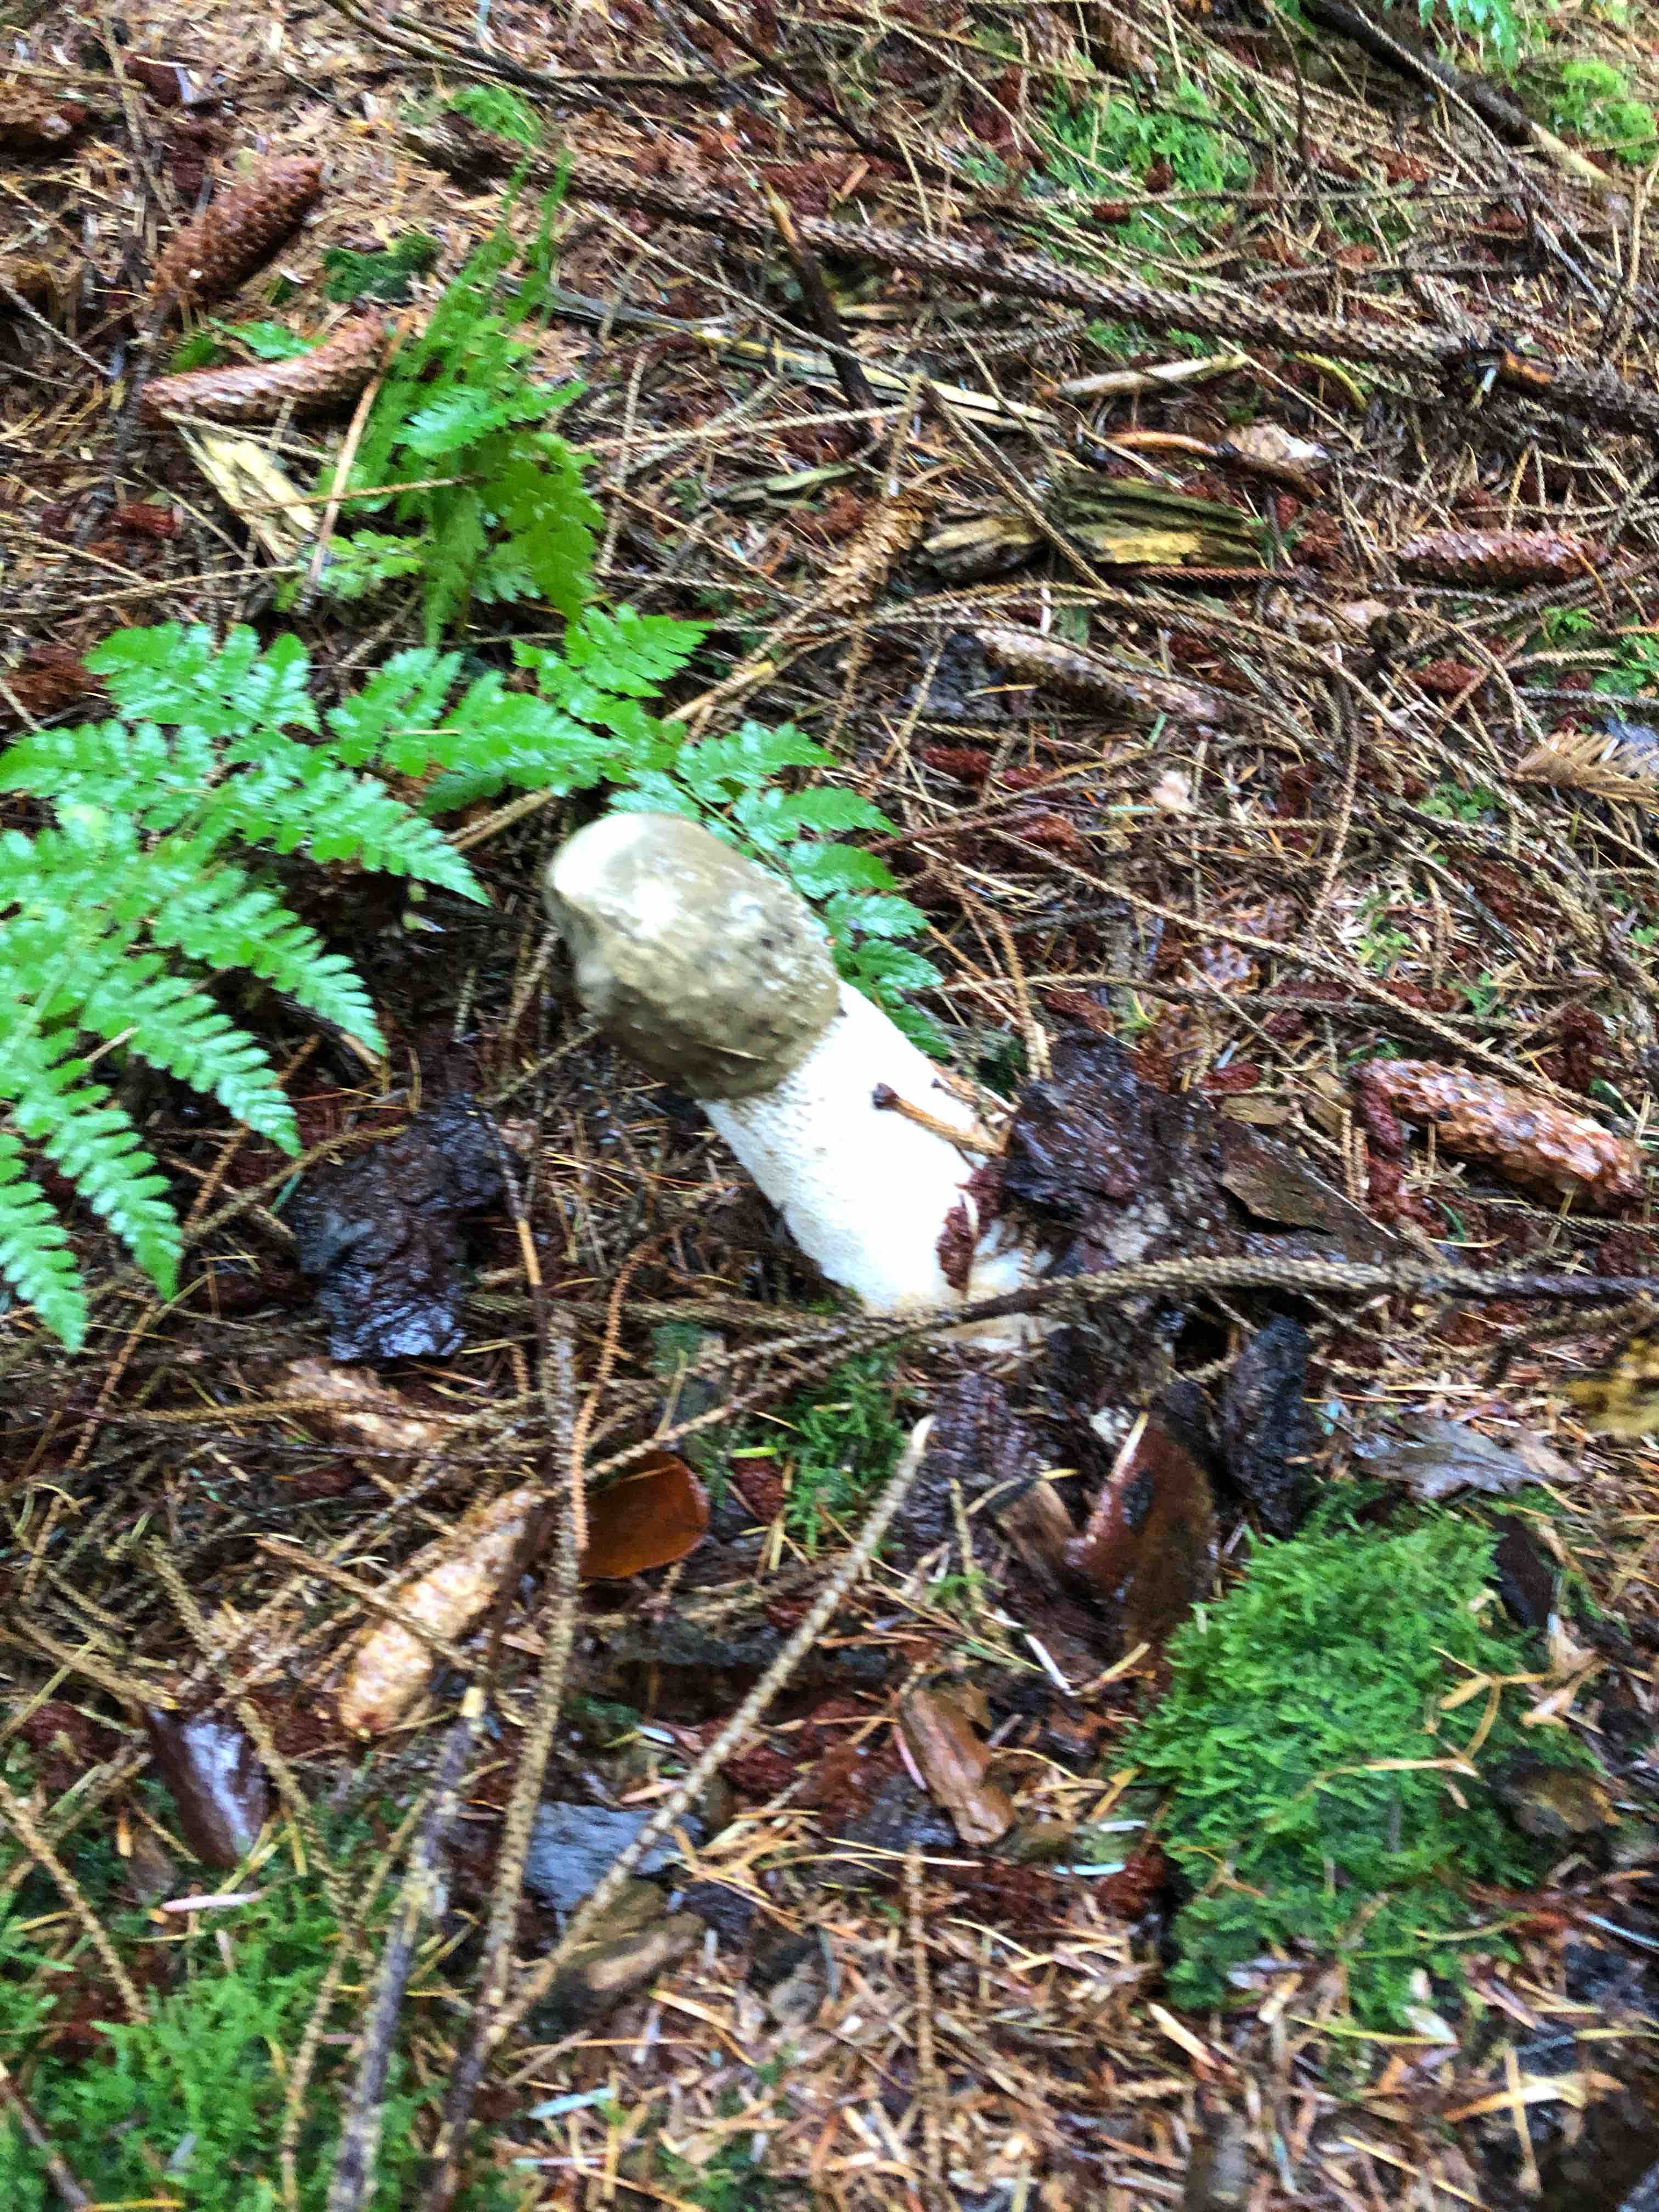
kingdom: Fungi
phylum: Basidiomycota
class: Agaricomycetes
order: Phallales
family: Phallaceae
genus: Phallus
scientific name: Phallus impudicus
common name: almindelig stinksvamp
